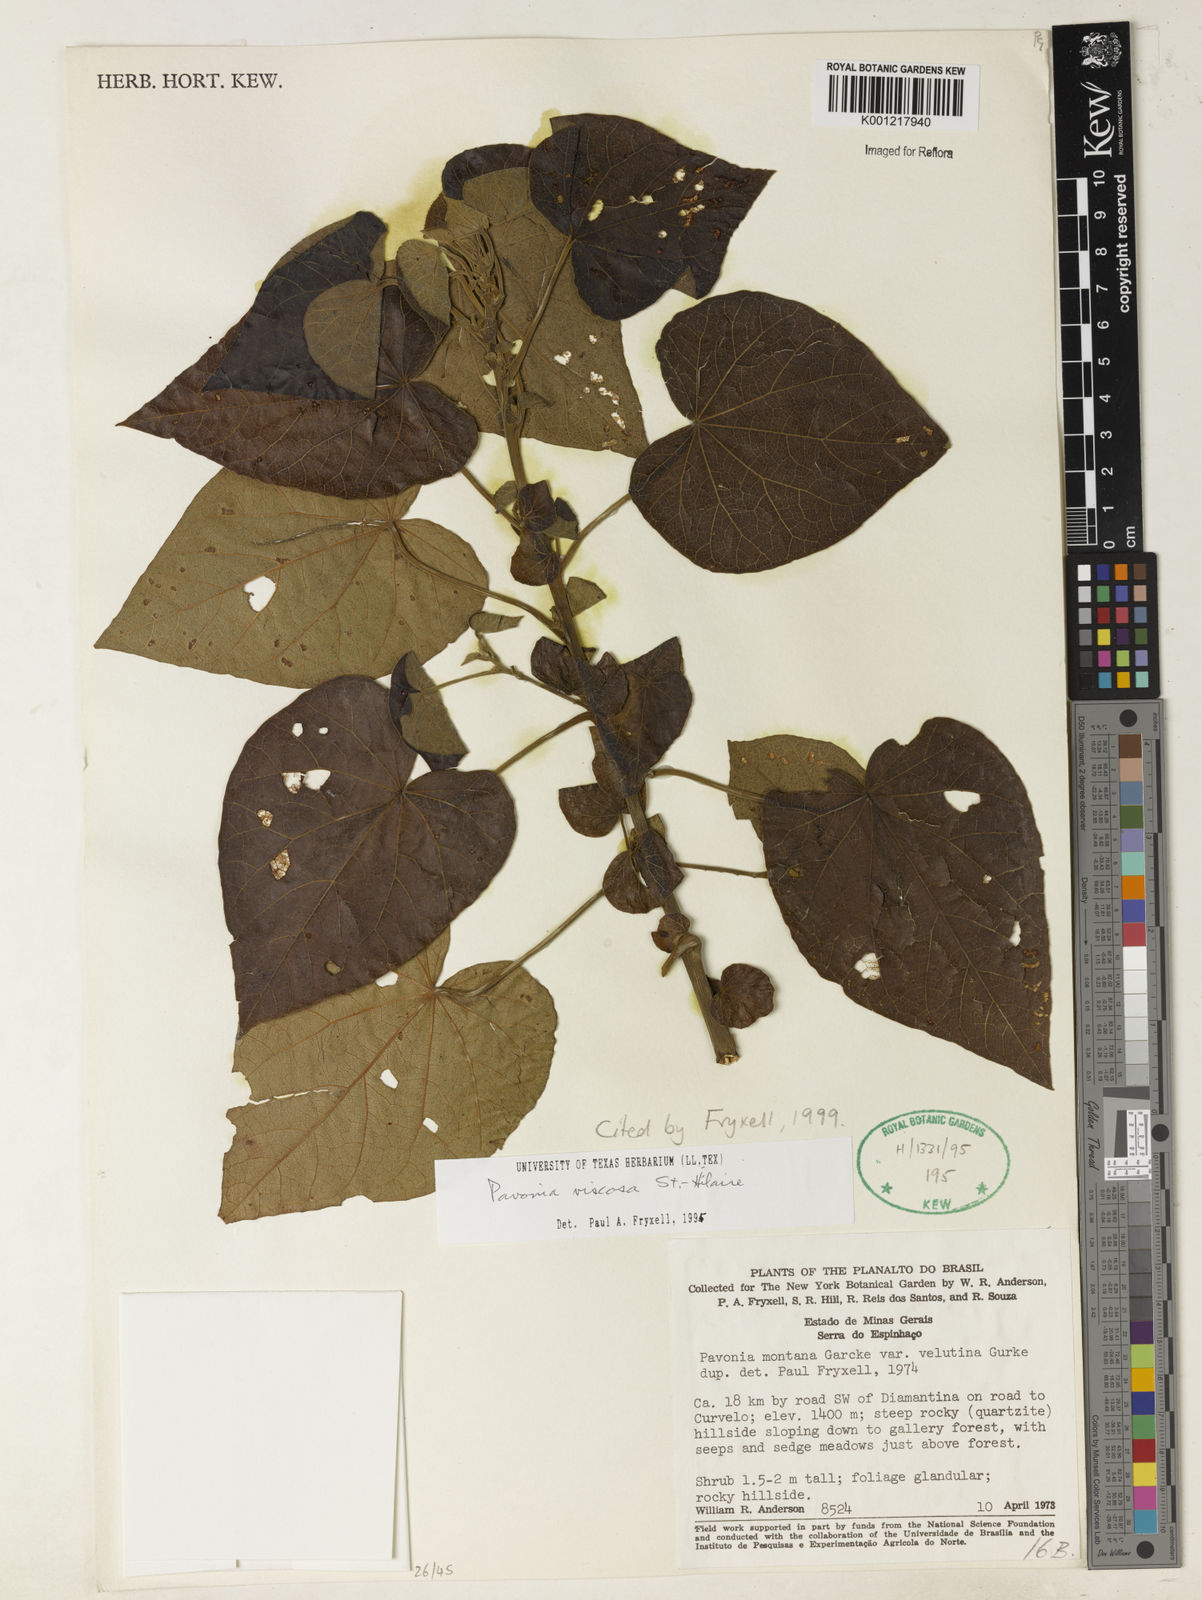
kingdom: Plantae
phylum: Tracheophyta
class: Magnoliopsida
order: Malvales
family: Malvaceae
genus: Pavonia
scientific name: Pavonia viscosa
